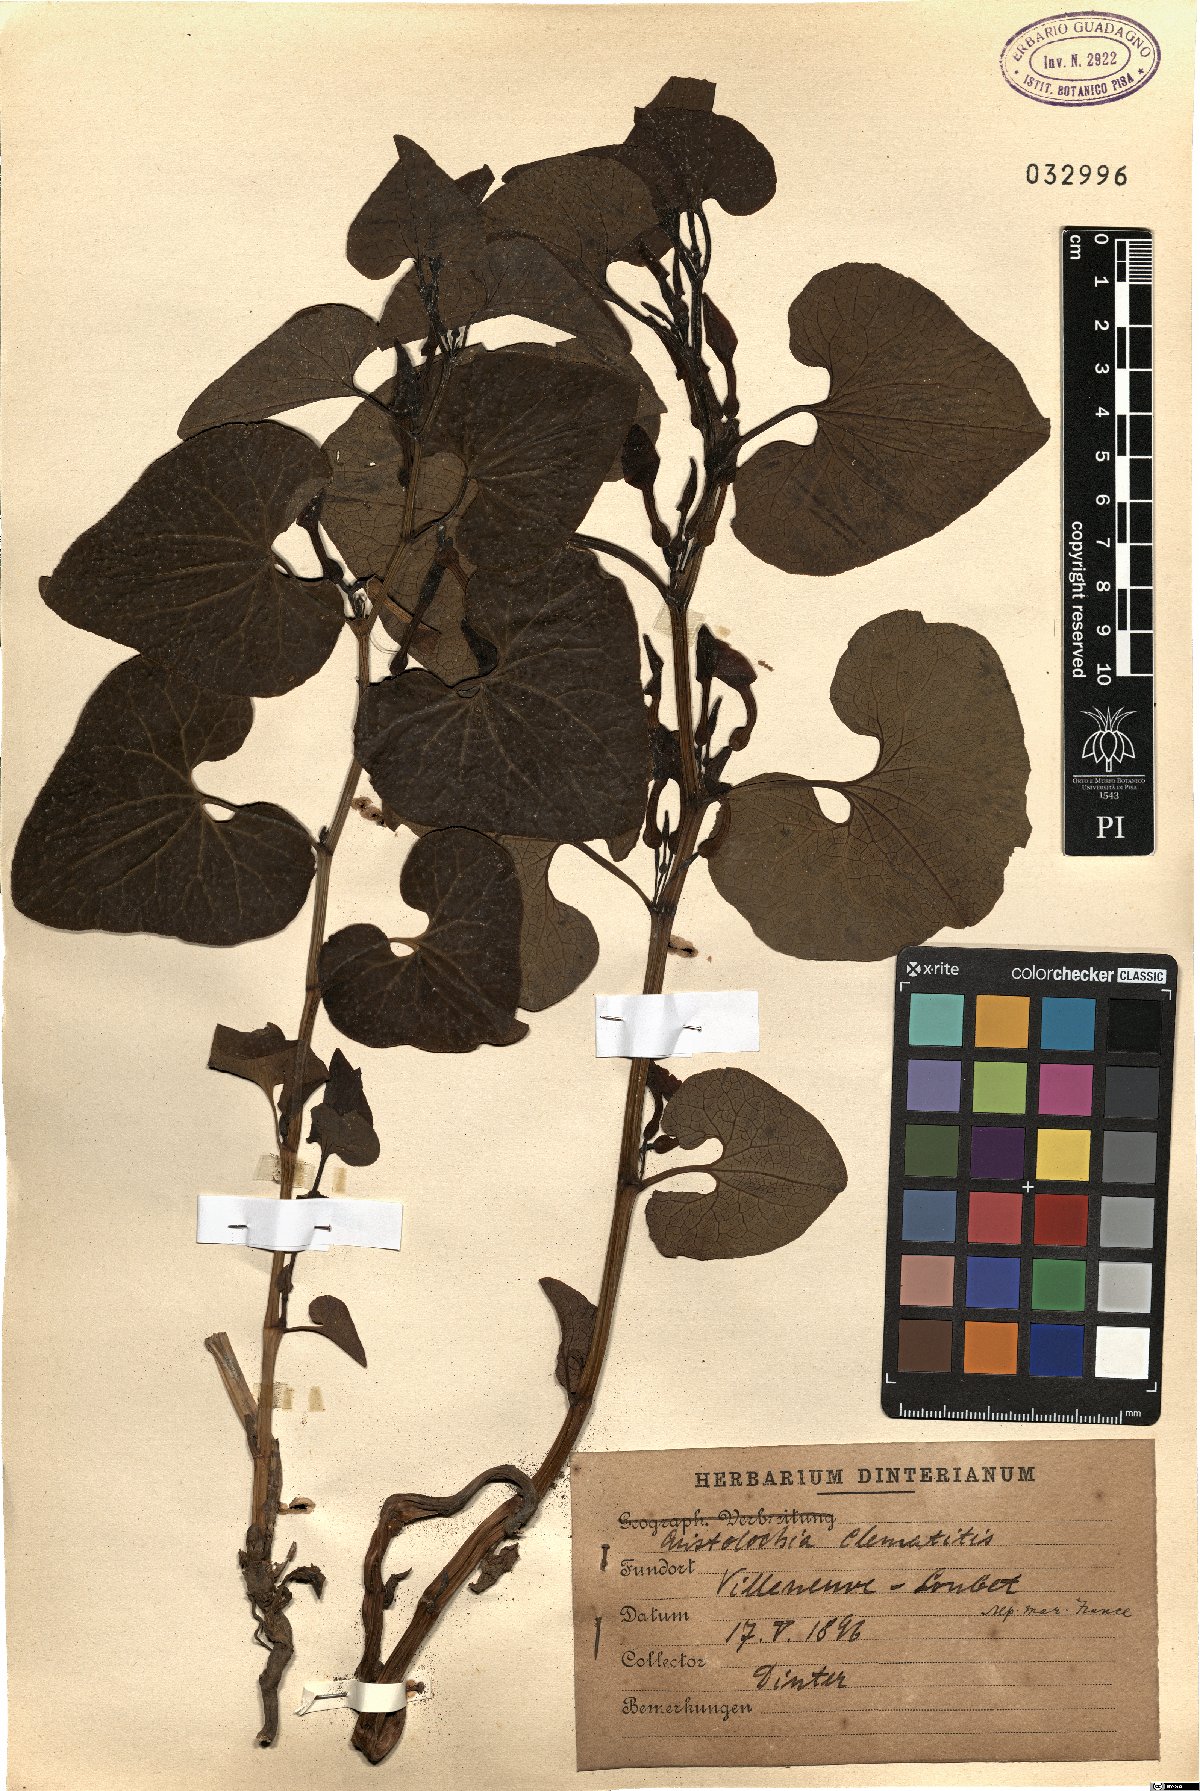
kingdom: Plantae
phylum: Tracheophyta
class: Magnoliopsida
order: Piperales
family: Aristolochiaceae
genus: Aristolochia
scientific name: Aristolochia clematitis
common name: Birthwort
